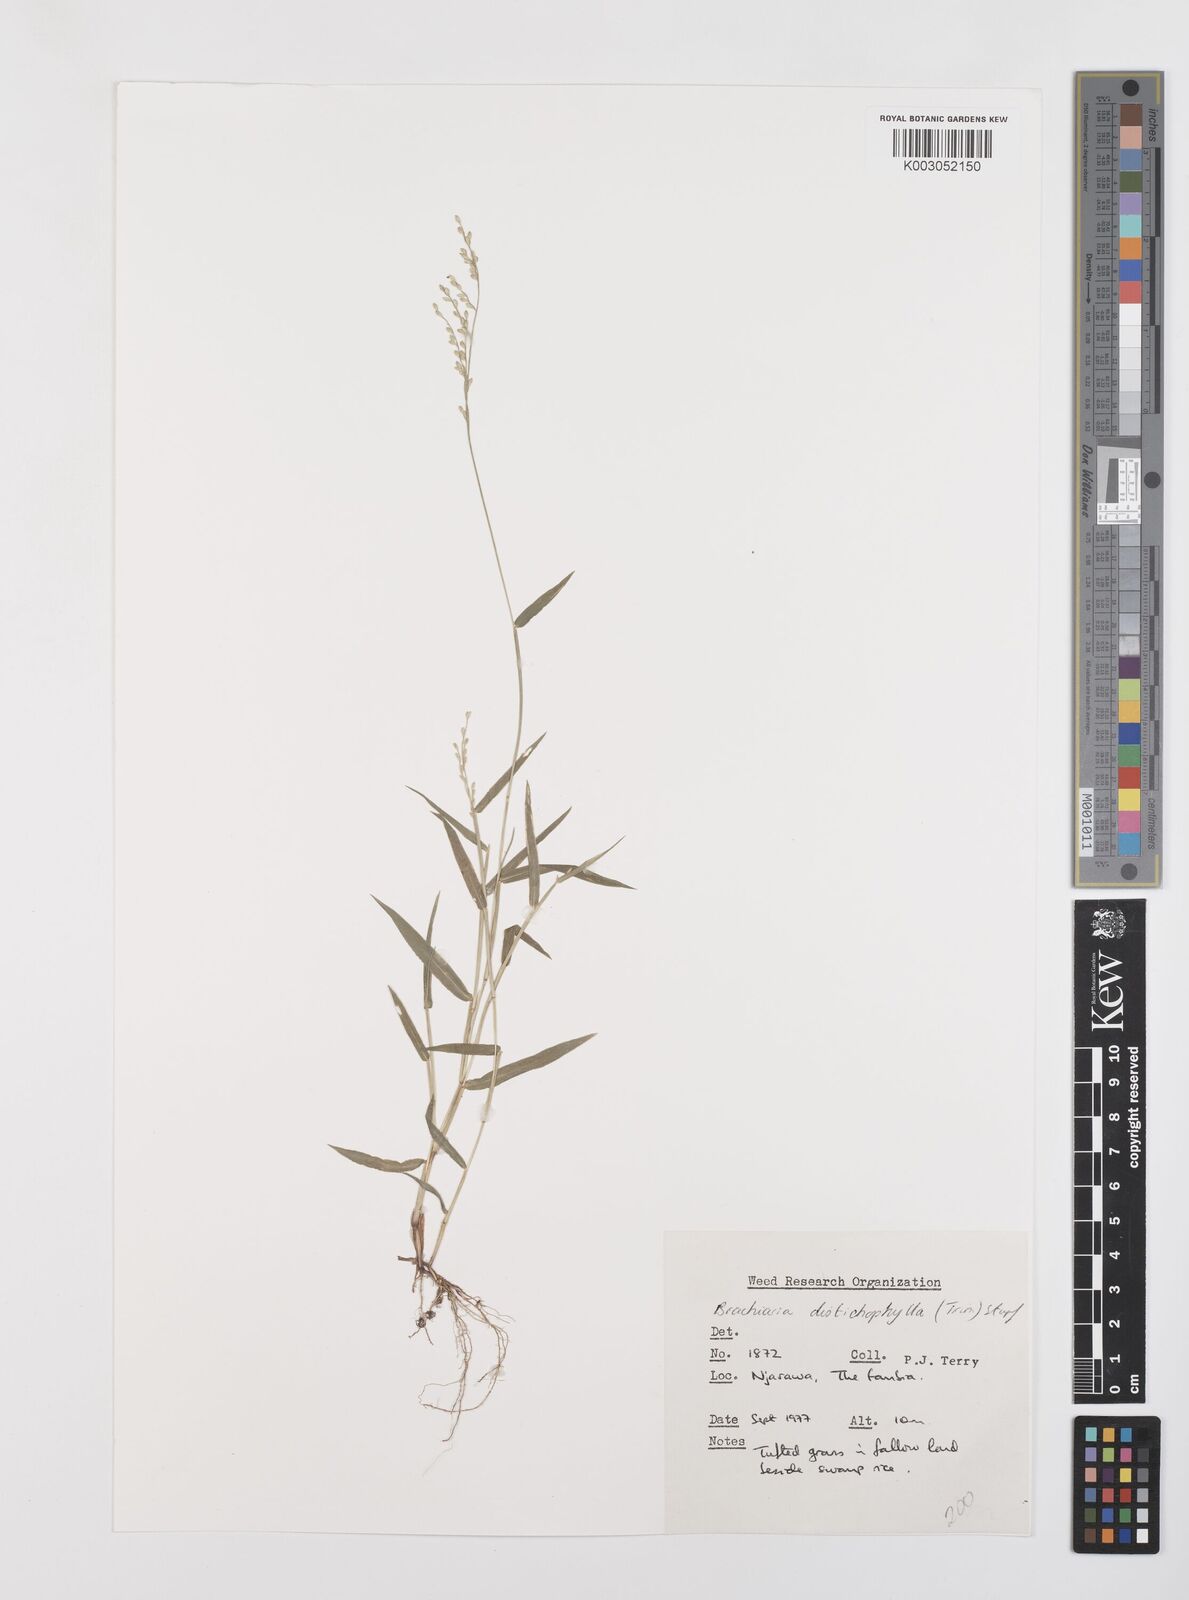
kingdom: Plantae
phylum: Tracheophyta
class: Liliopsida
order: Poales
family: Poaceae
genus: Urochloa
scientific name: Urochloa villosa
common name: Hairy signalgrass
